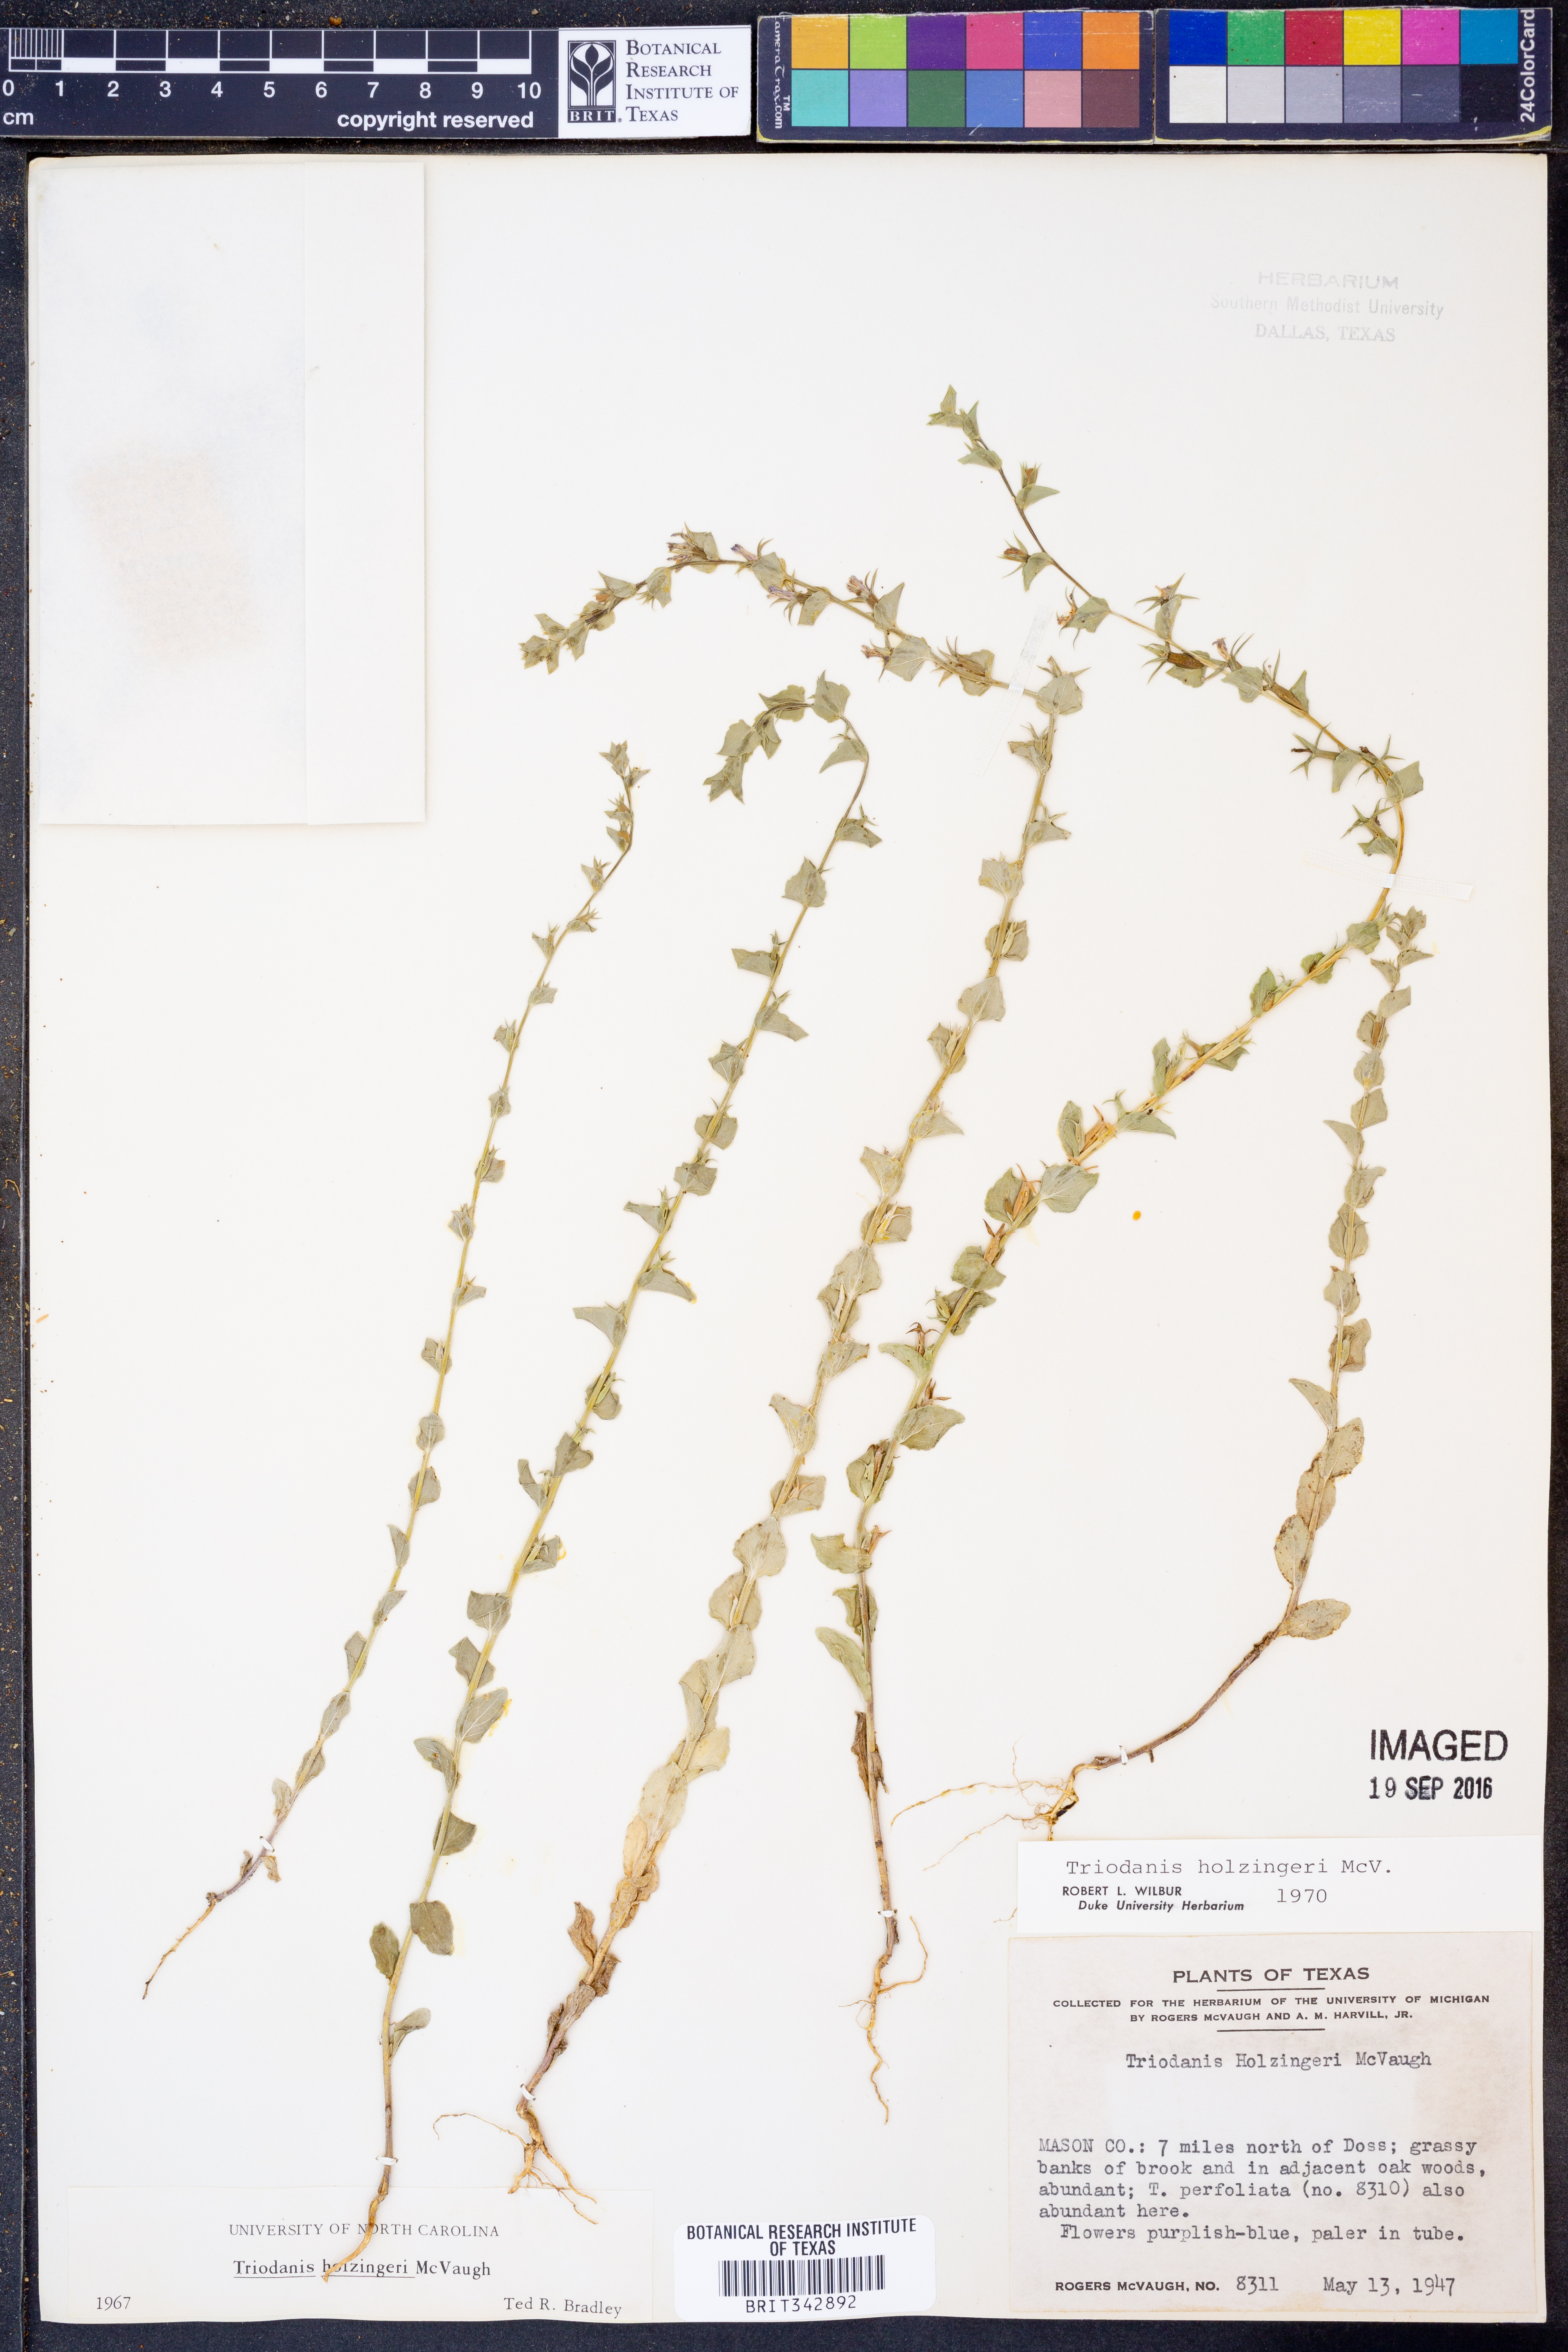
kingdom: Plantae
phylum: Tracheophyta
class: Magnoliopsida
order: Asterales
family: Campanulaceae
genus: Triodanis
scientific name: Triodanis holzingeri
